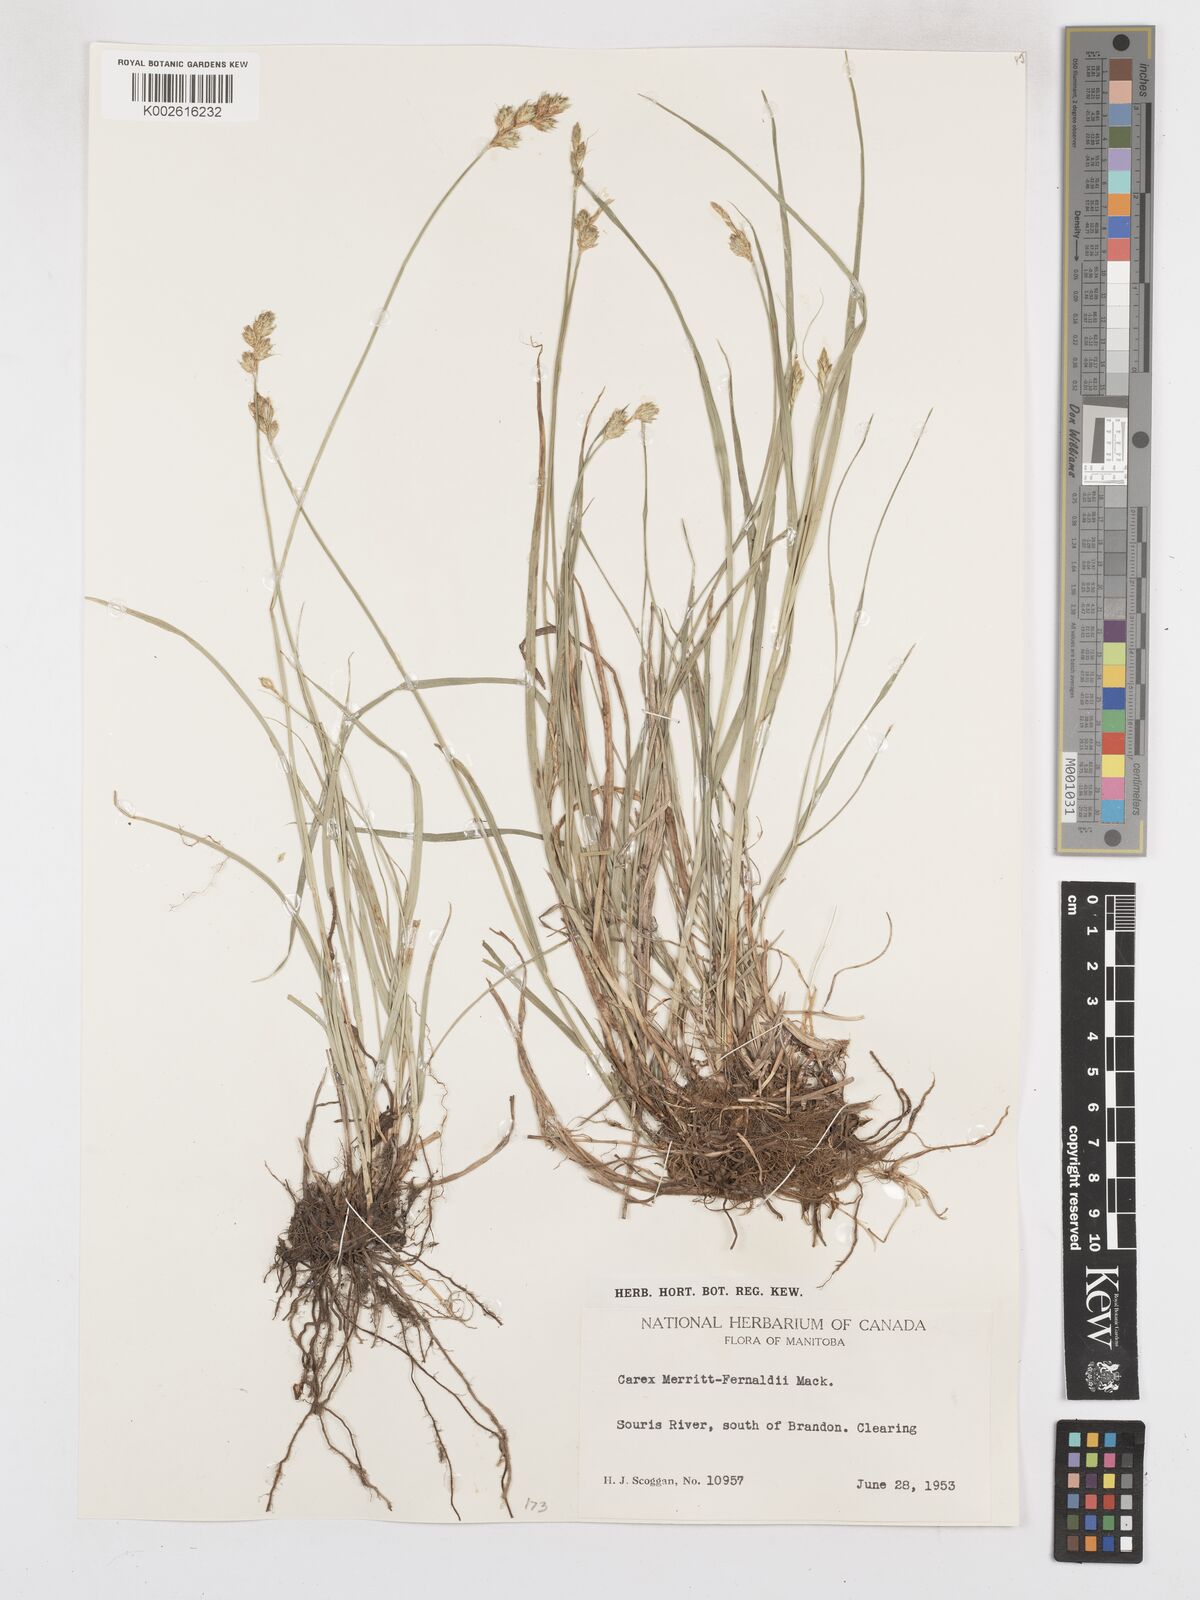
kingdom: Plantae
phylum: Tracheophyta
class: Liliopsida
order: Poales
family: Cyperaceae
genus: Carex
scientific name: Carex merritt-fernaldii
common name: Fernald's oval sedge
